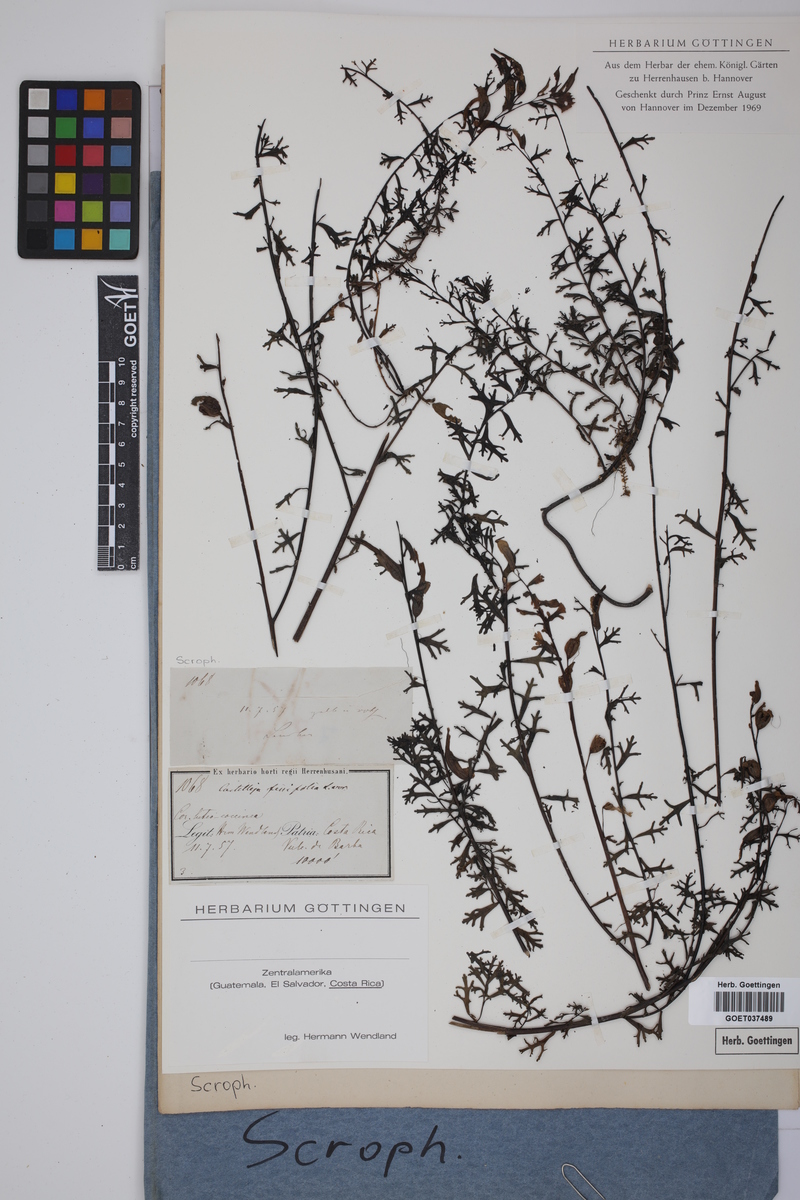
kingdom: Plantae
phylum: Tracheophyta
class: Magnoliopsida
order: Lamiales
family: Orobanchaceae
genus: Castilleja
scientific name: Castilleja fissifolia
